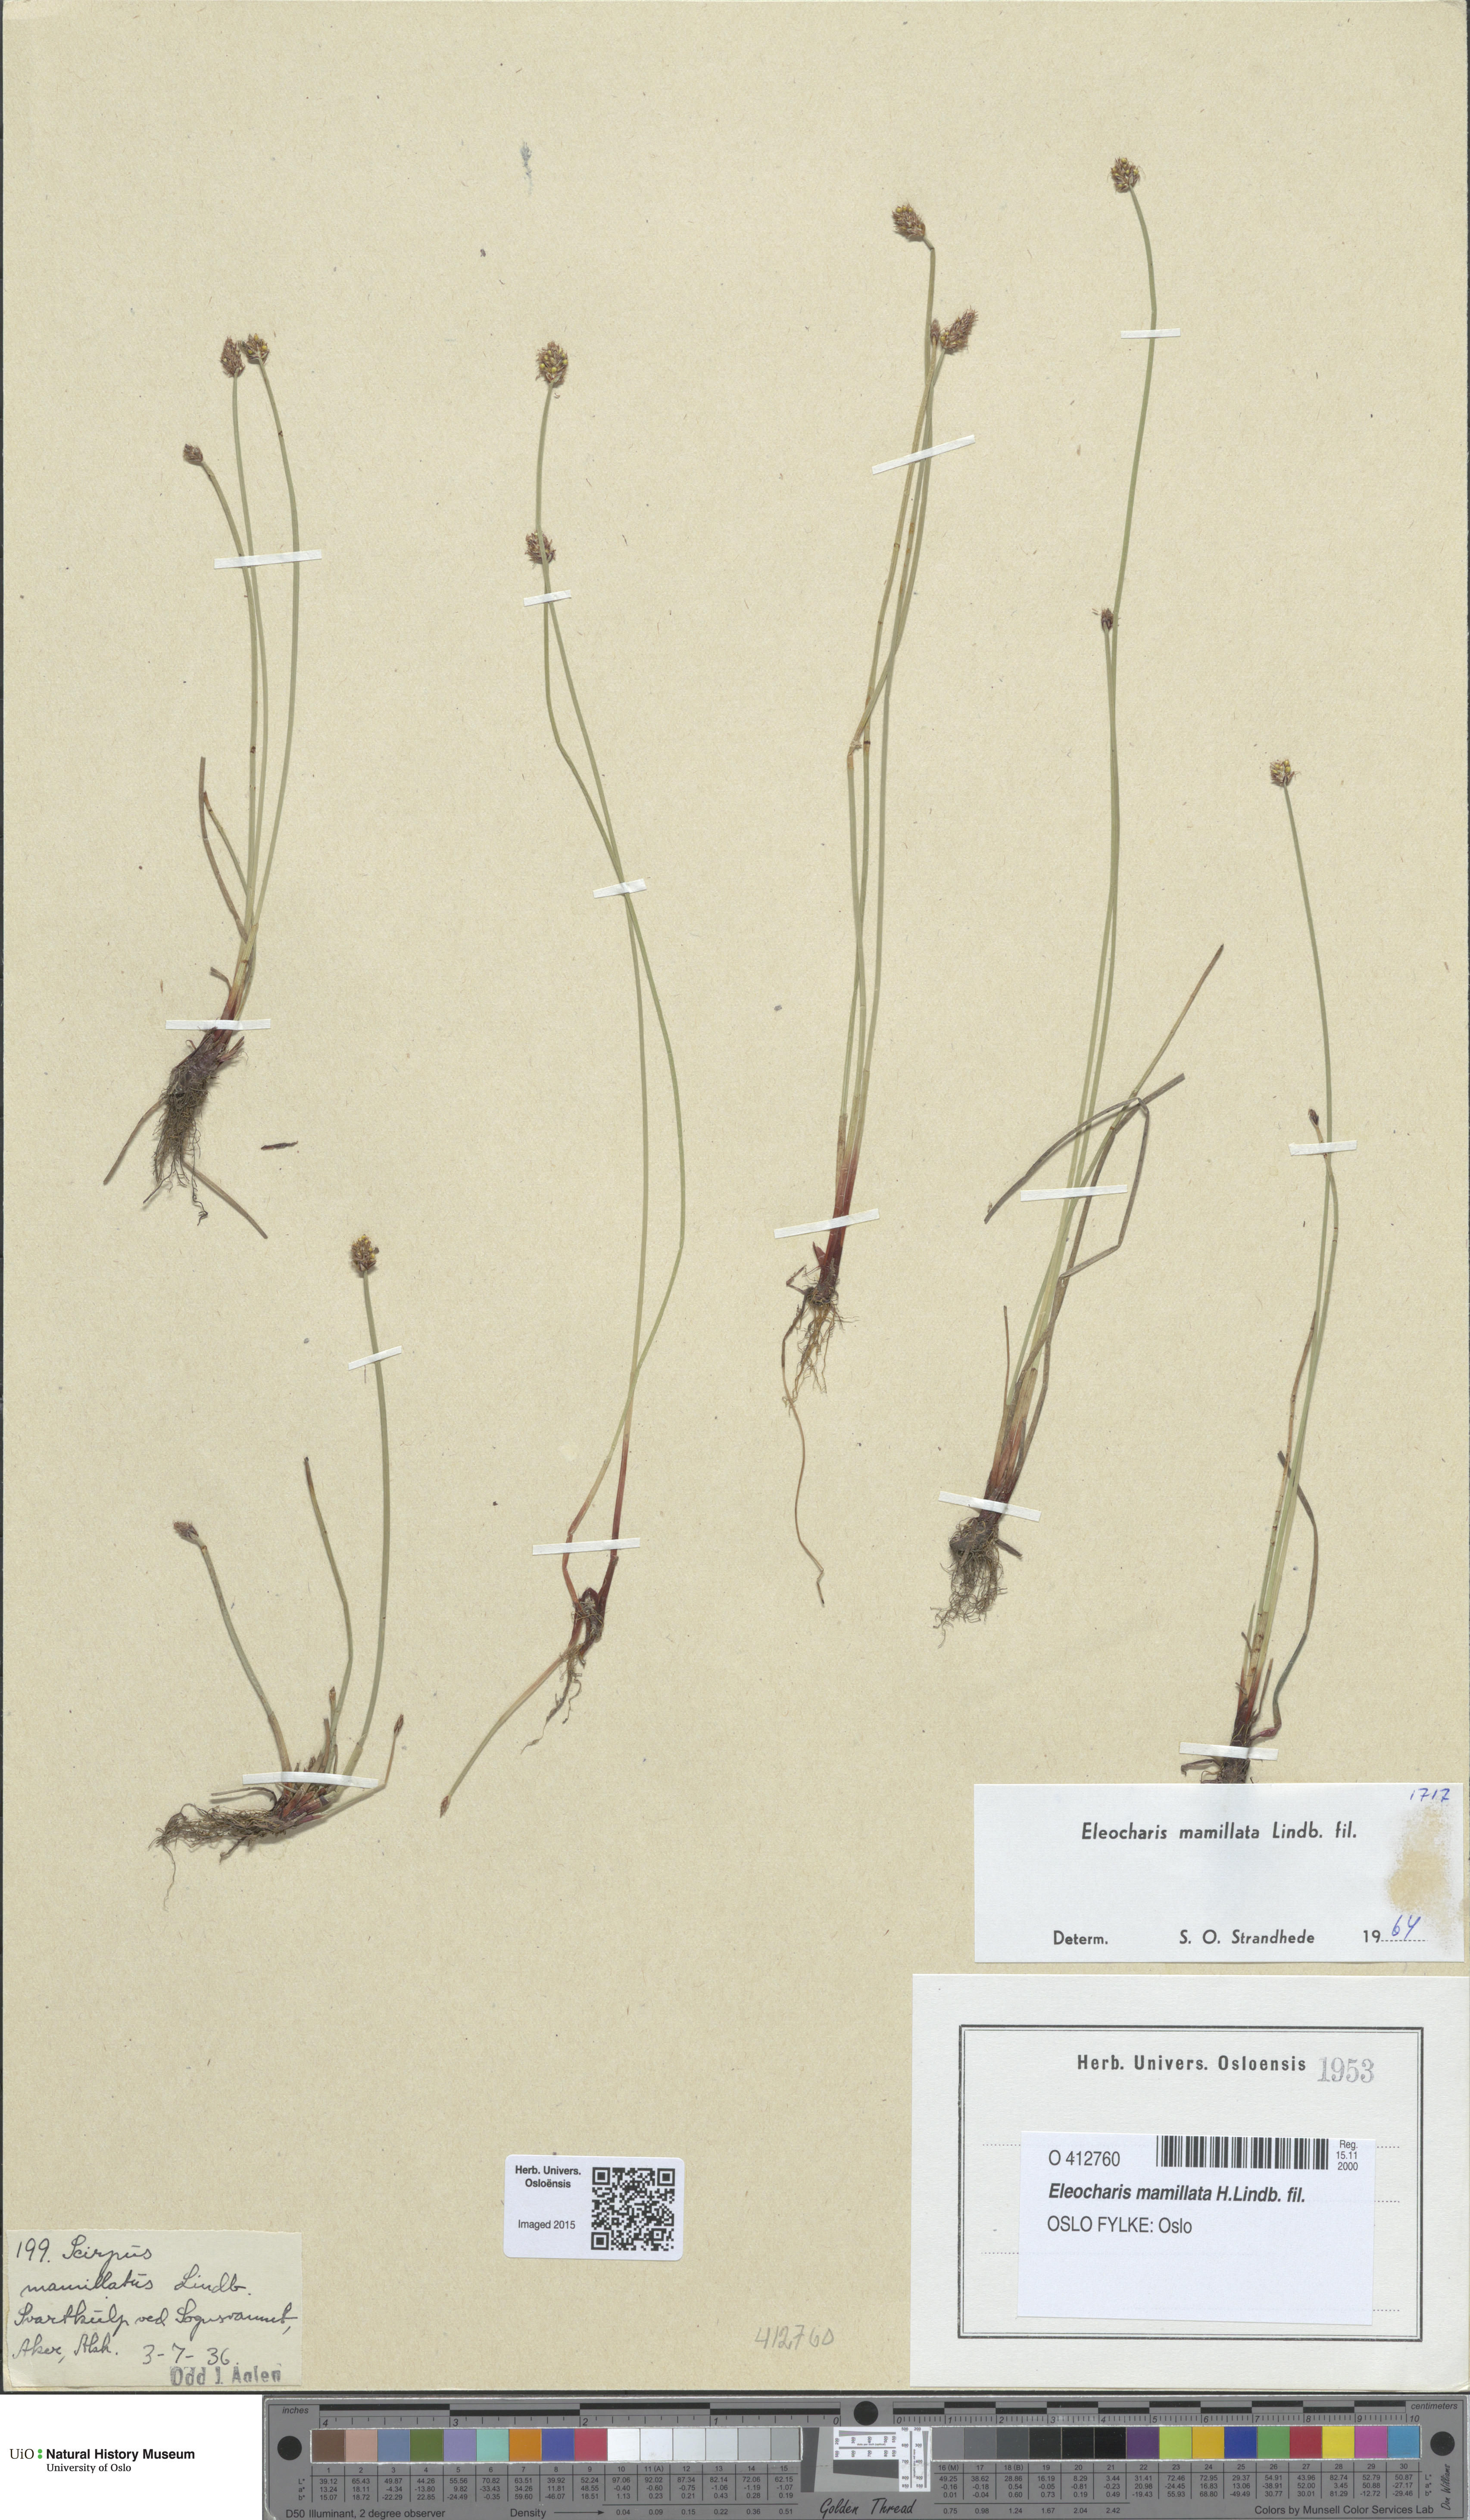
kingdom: Plantae
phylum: Tracheophyta
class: Liliopsida
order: Poales
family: Cyperaceae
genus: Eleocharis
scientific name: Eleocharis mamillata
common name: Northern spike-rush
